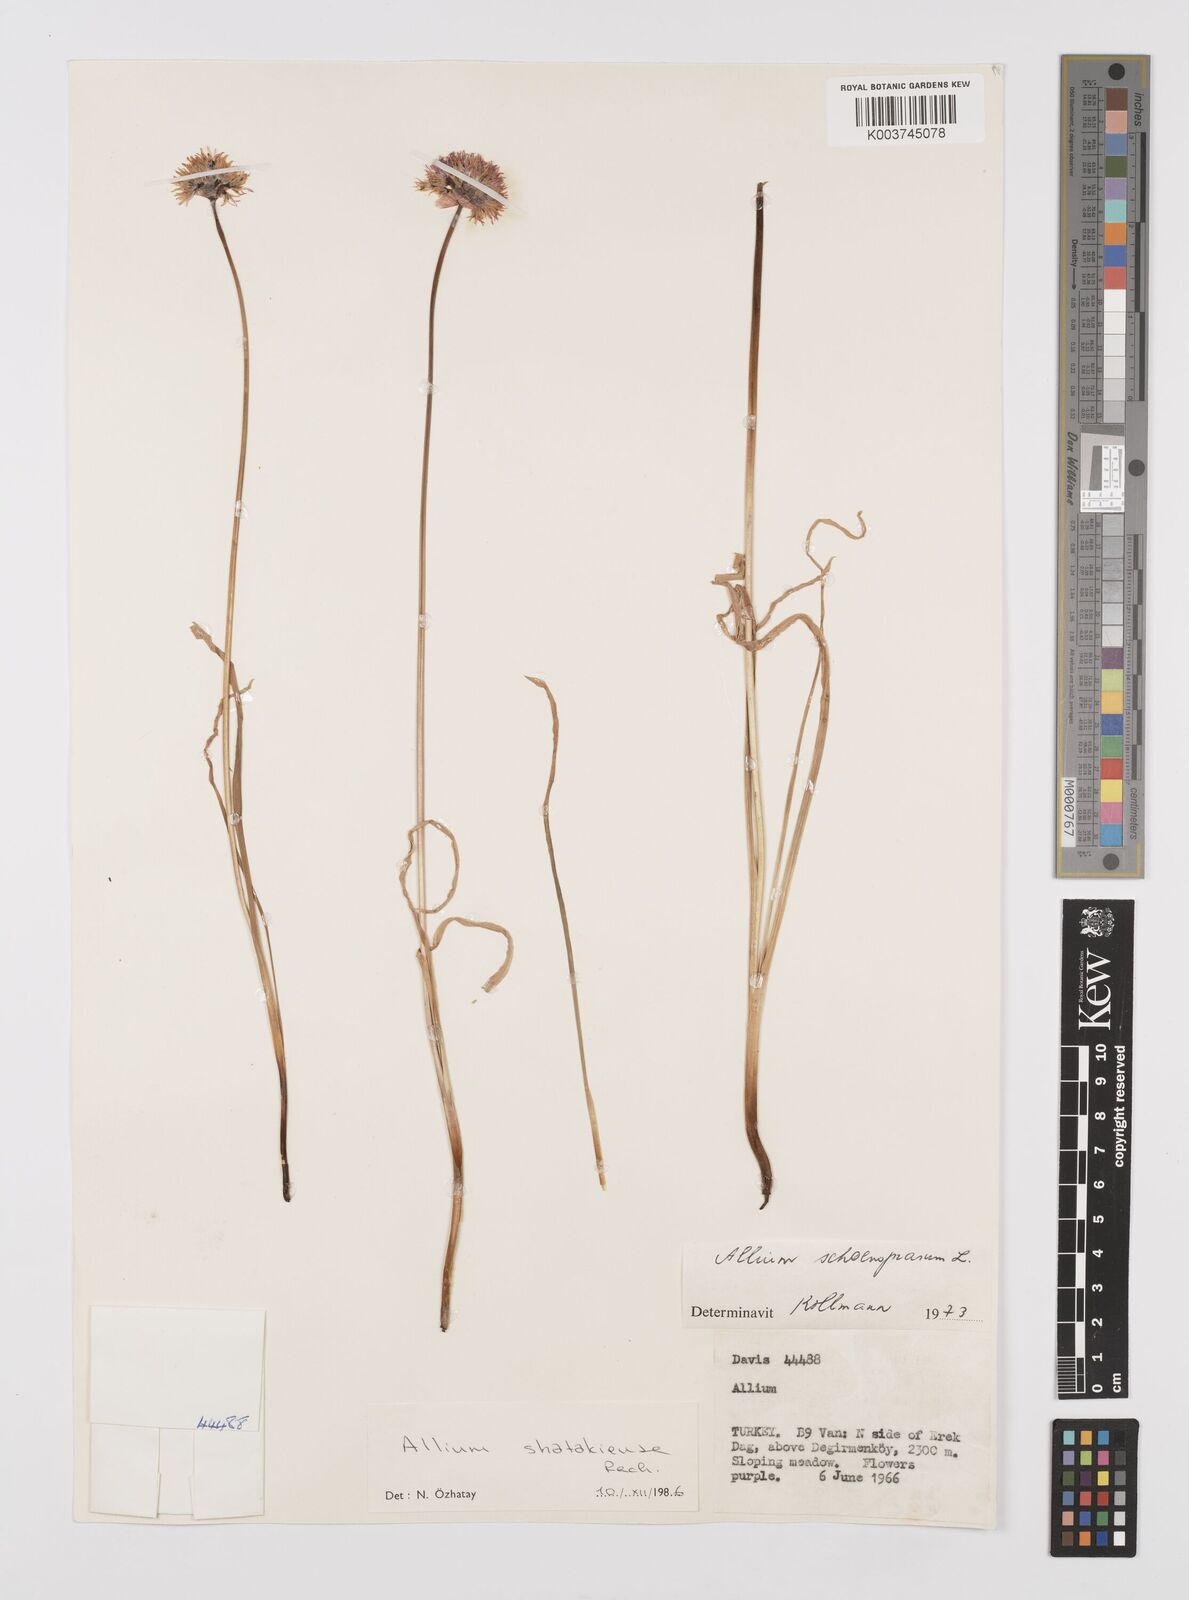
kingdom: Plantae
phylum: Tracheophyta
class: Liliopsida
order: Asparagales
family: Amaryllidaceae
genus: Allium
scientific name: Allium shatakiense
